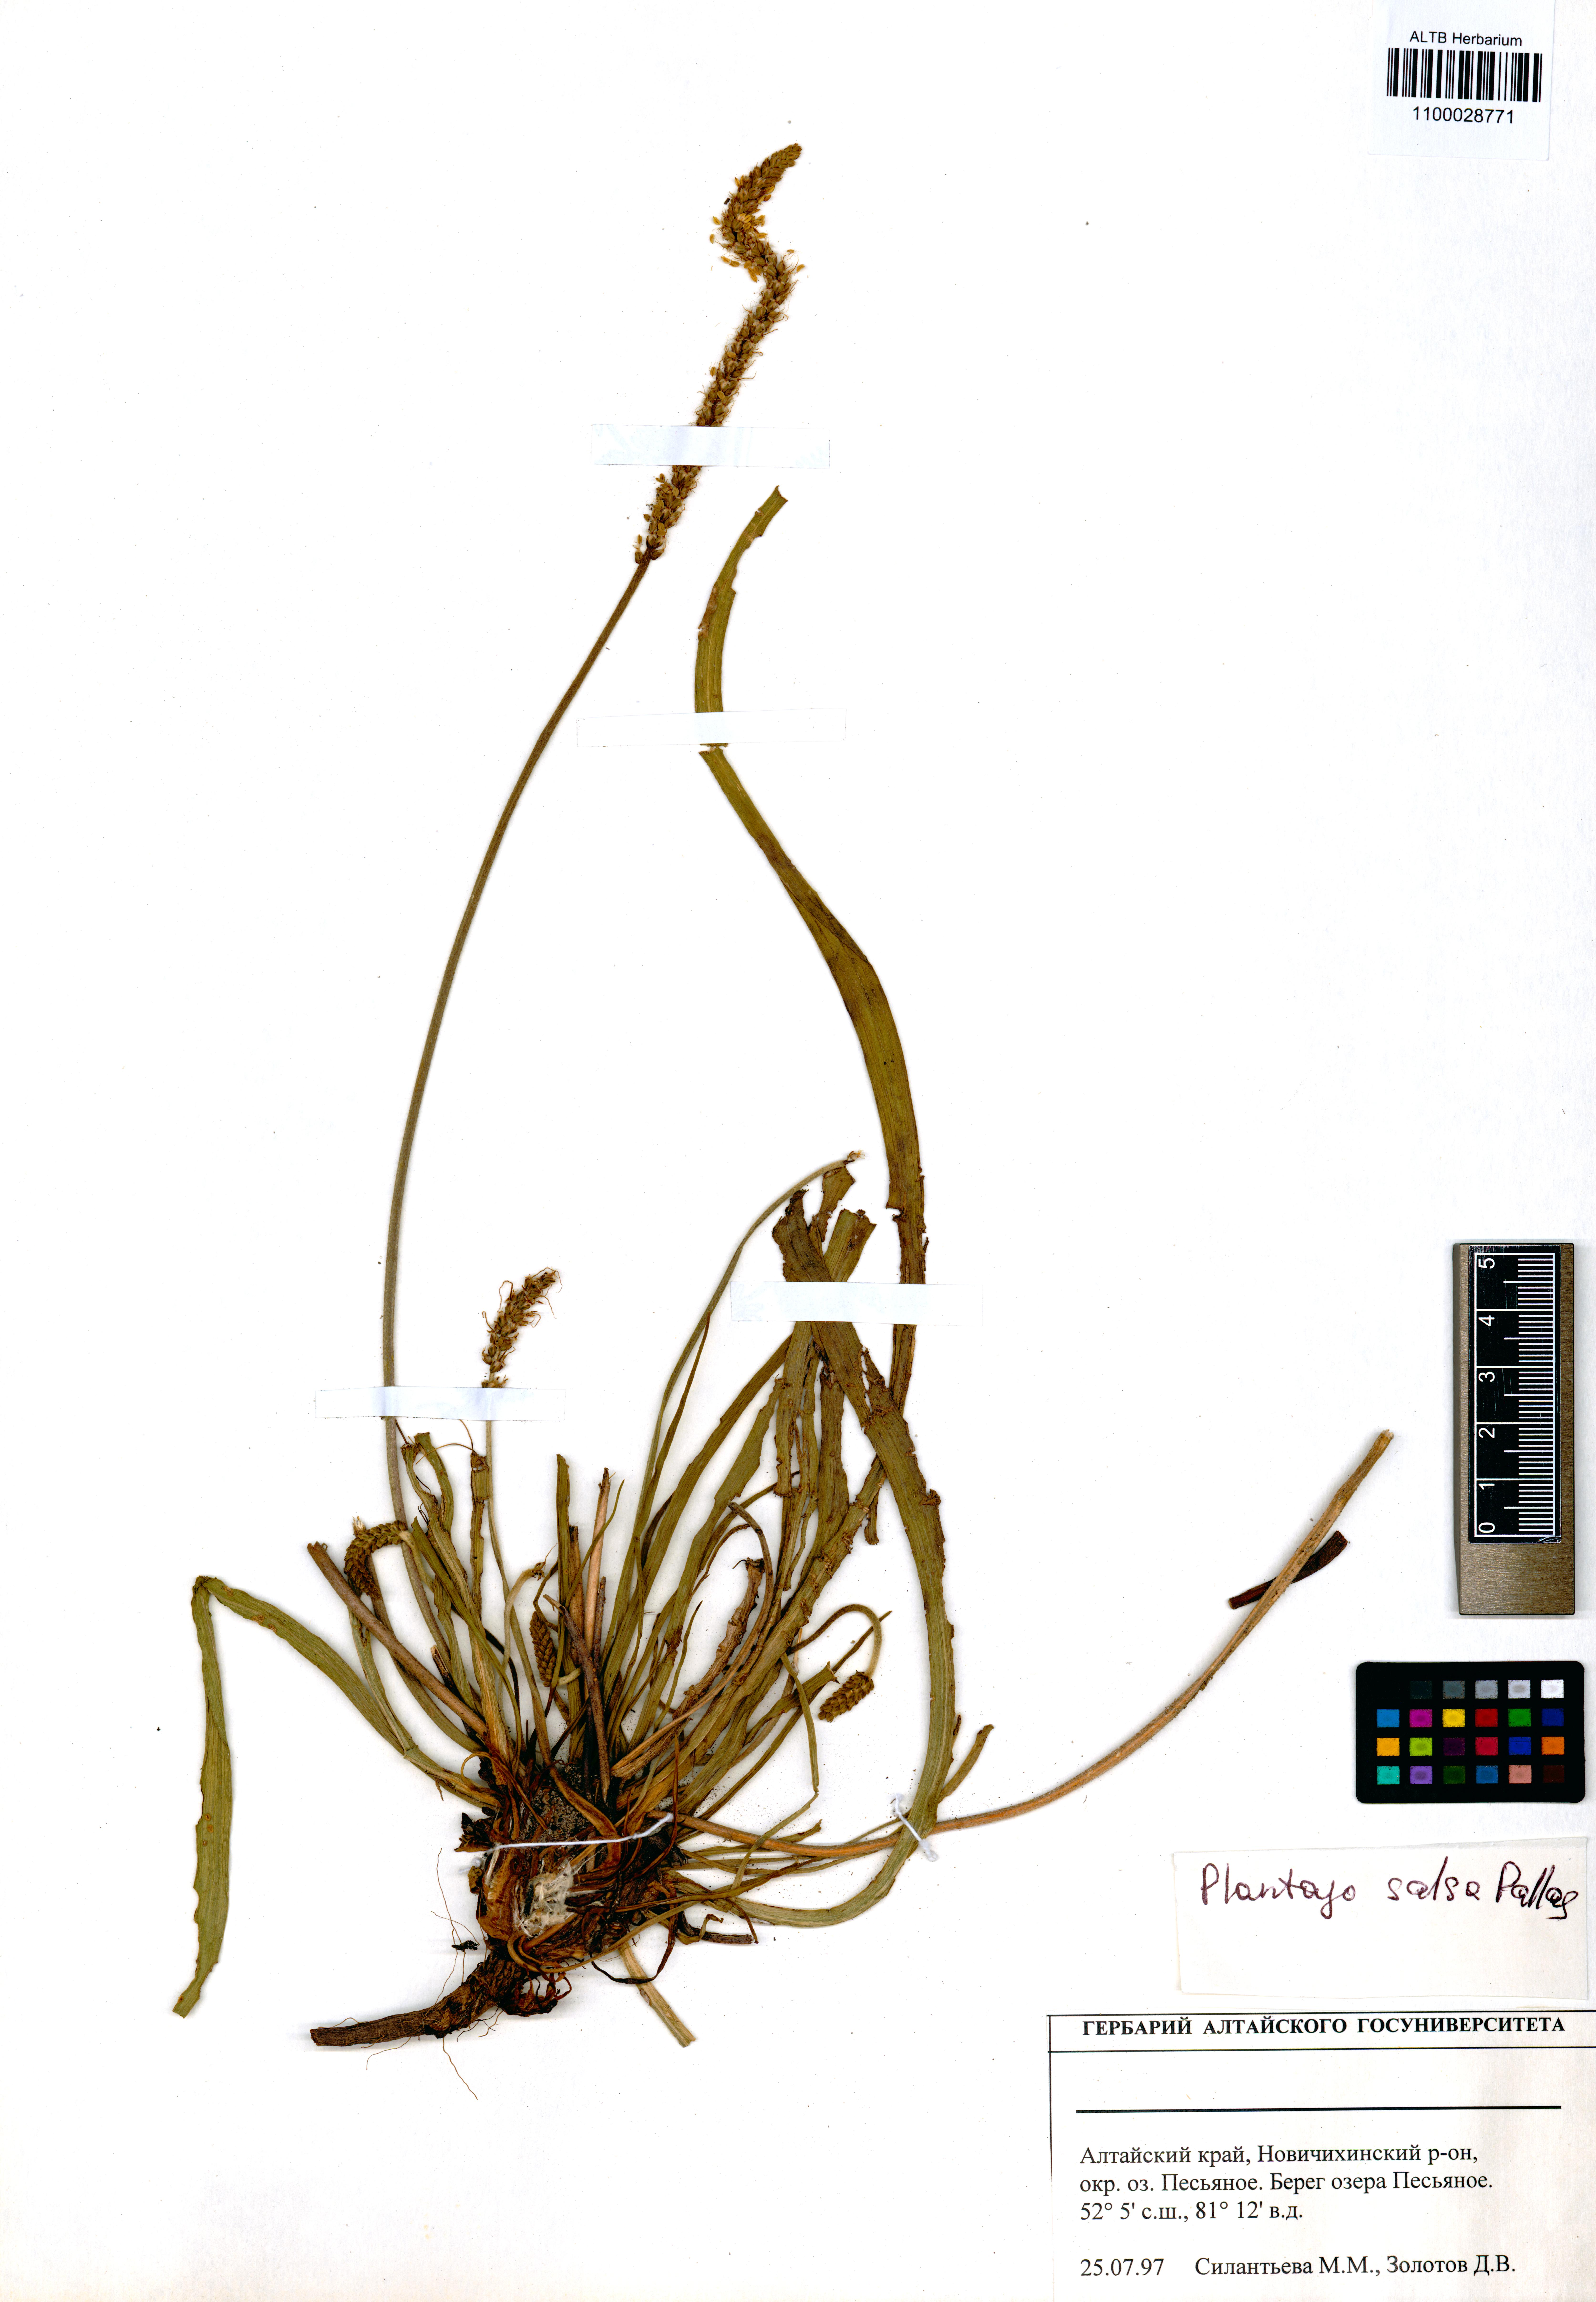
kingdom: Plantae
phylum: Tracheophyta
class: Magnoliopsida
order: Lamiales
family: Plantaginaceae
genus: Plantago
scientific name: Plantago salsa
